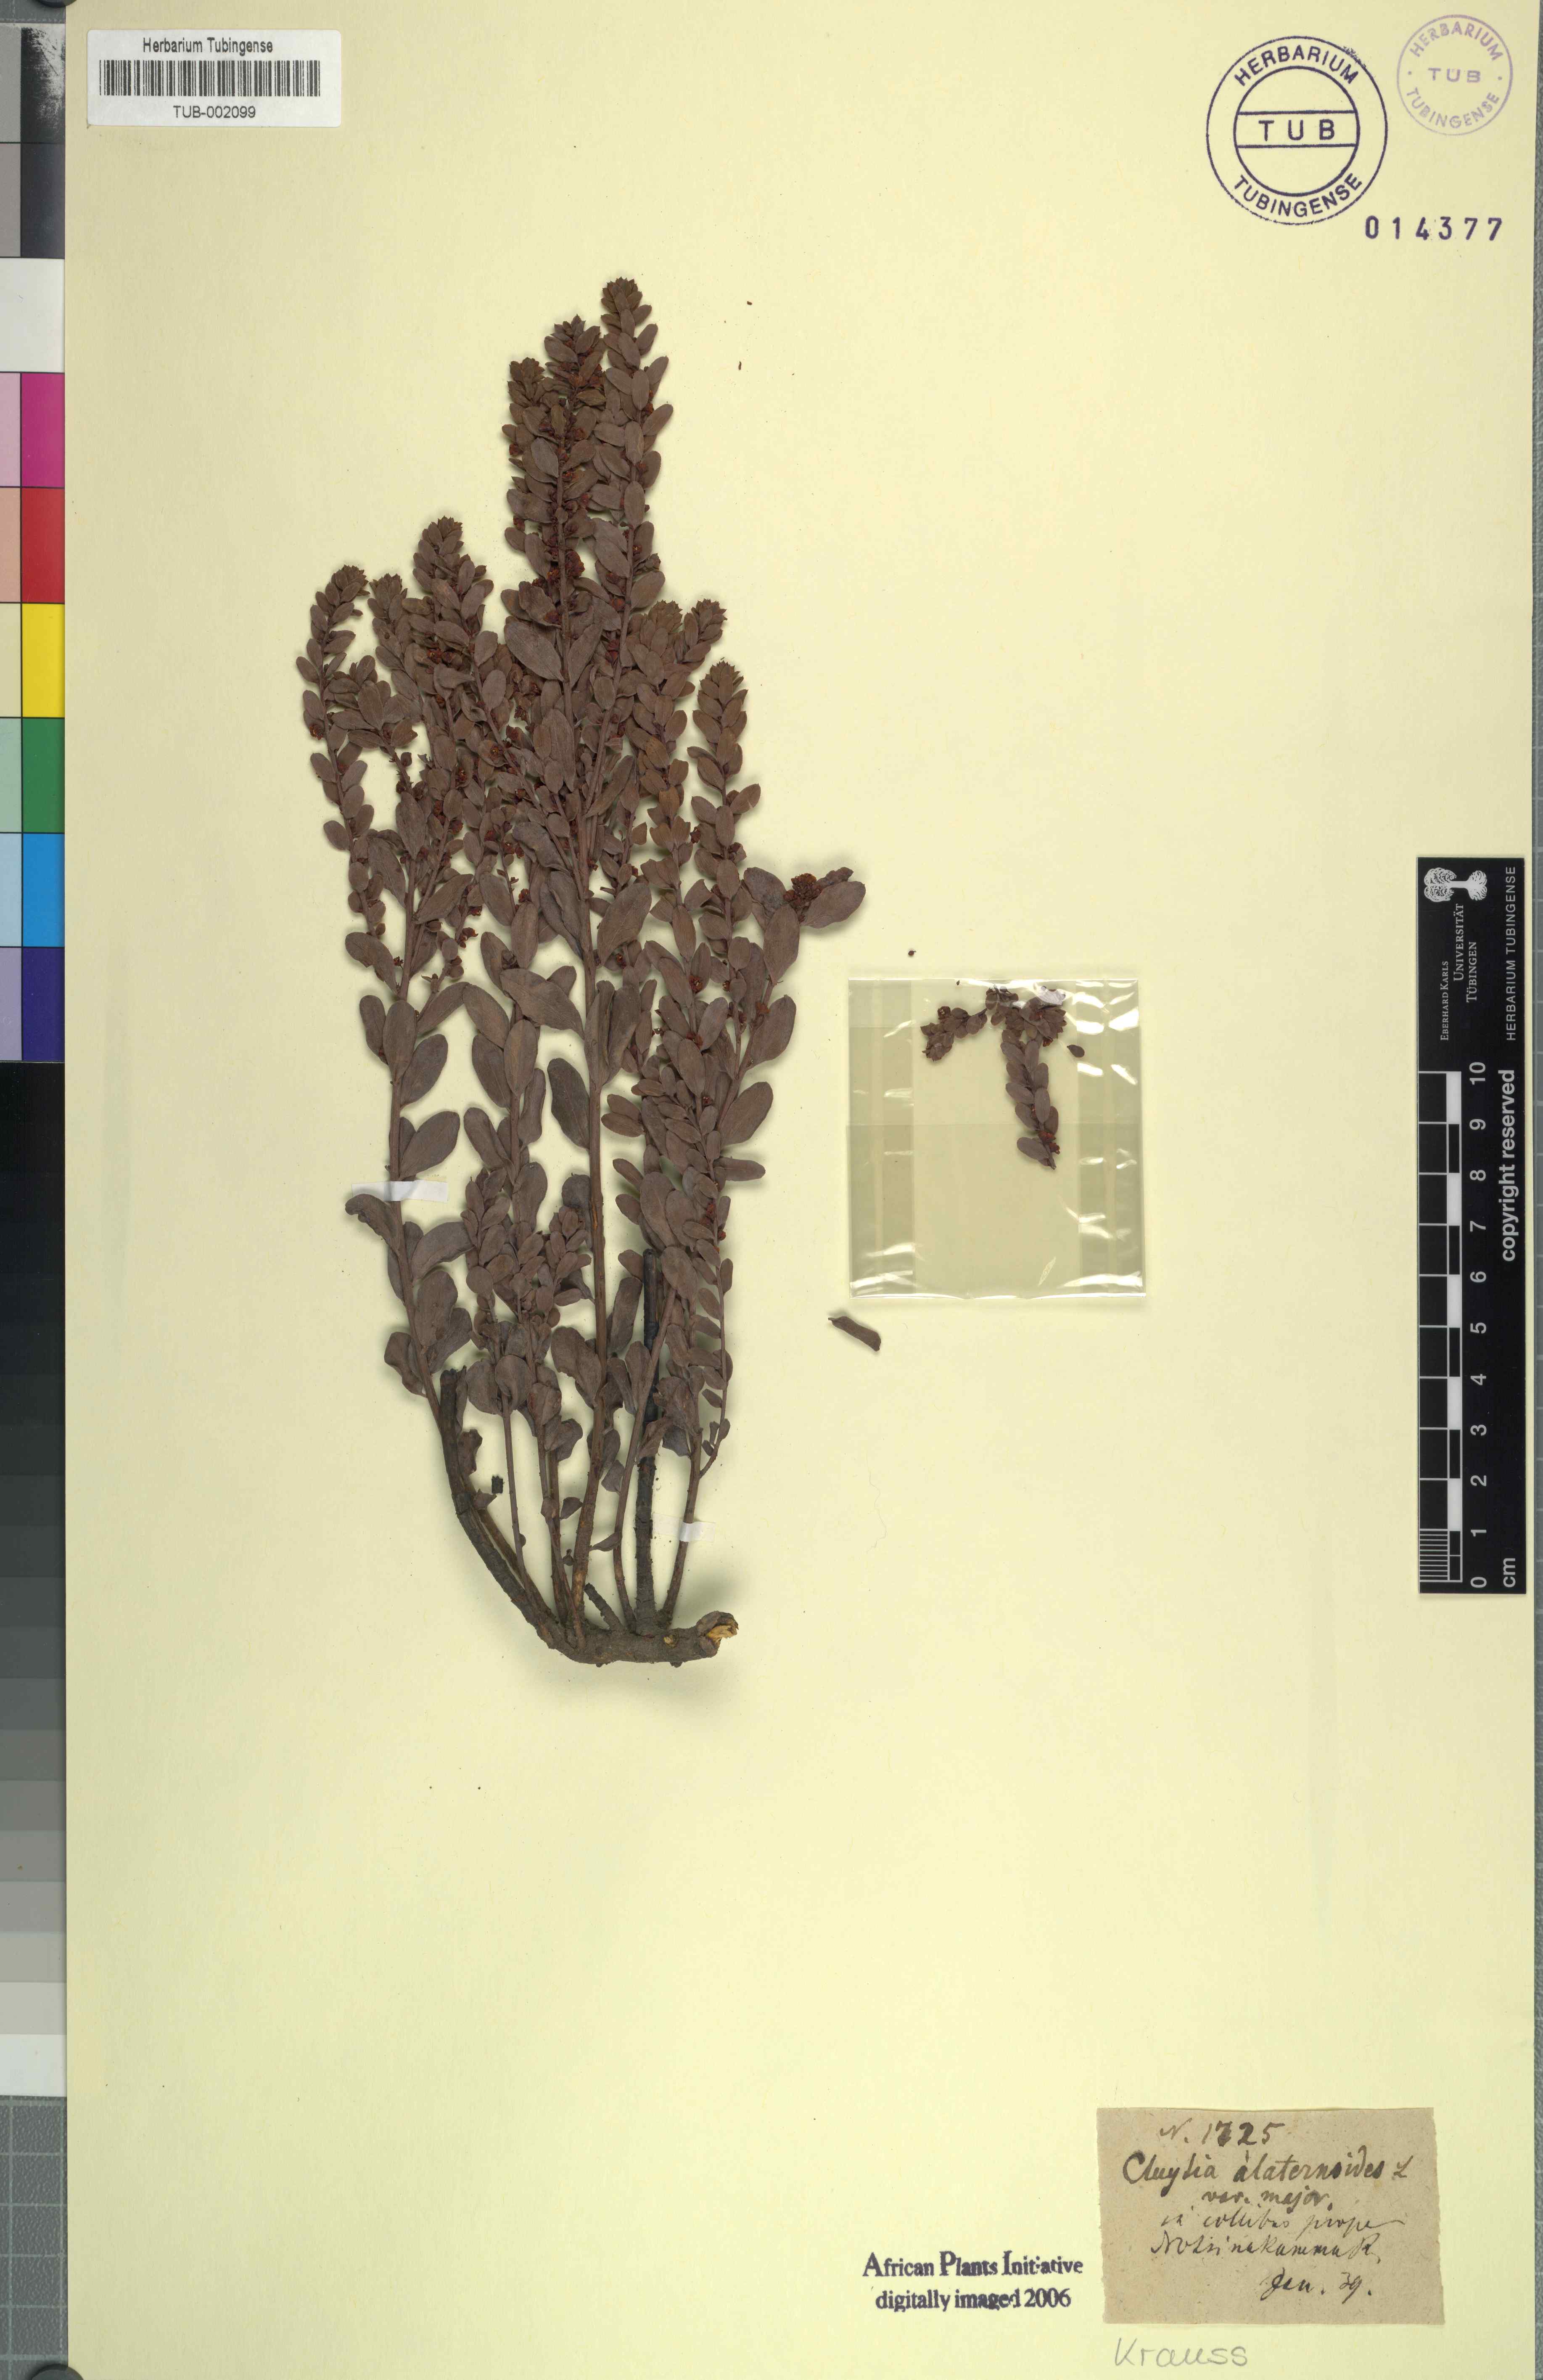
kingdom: Plantae
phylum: Tracheophyta
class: Magnoliopsida
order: Malpighiales
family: Peraceae
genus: Clutia
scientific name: Clutia alaternoides
